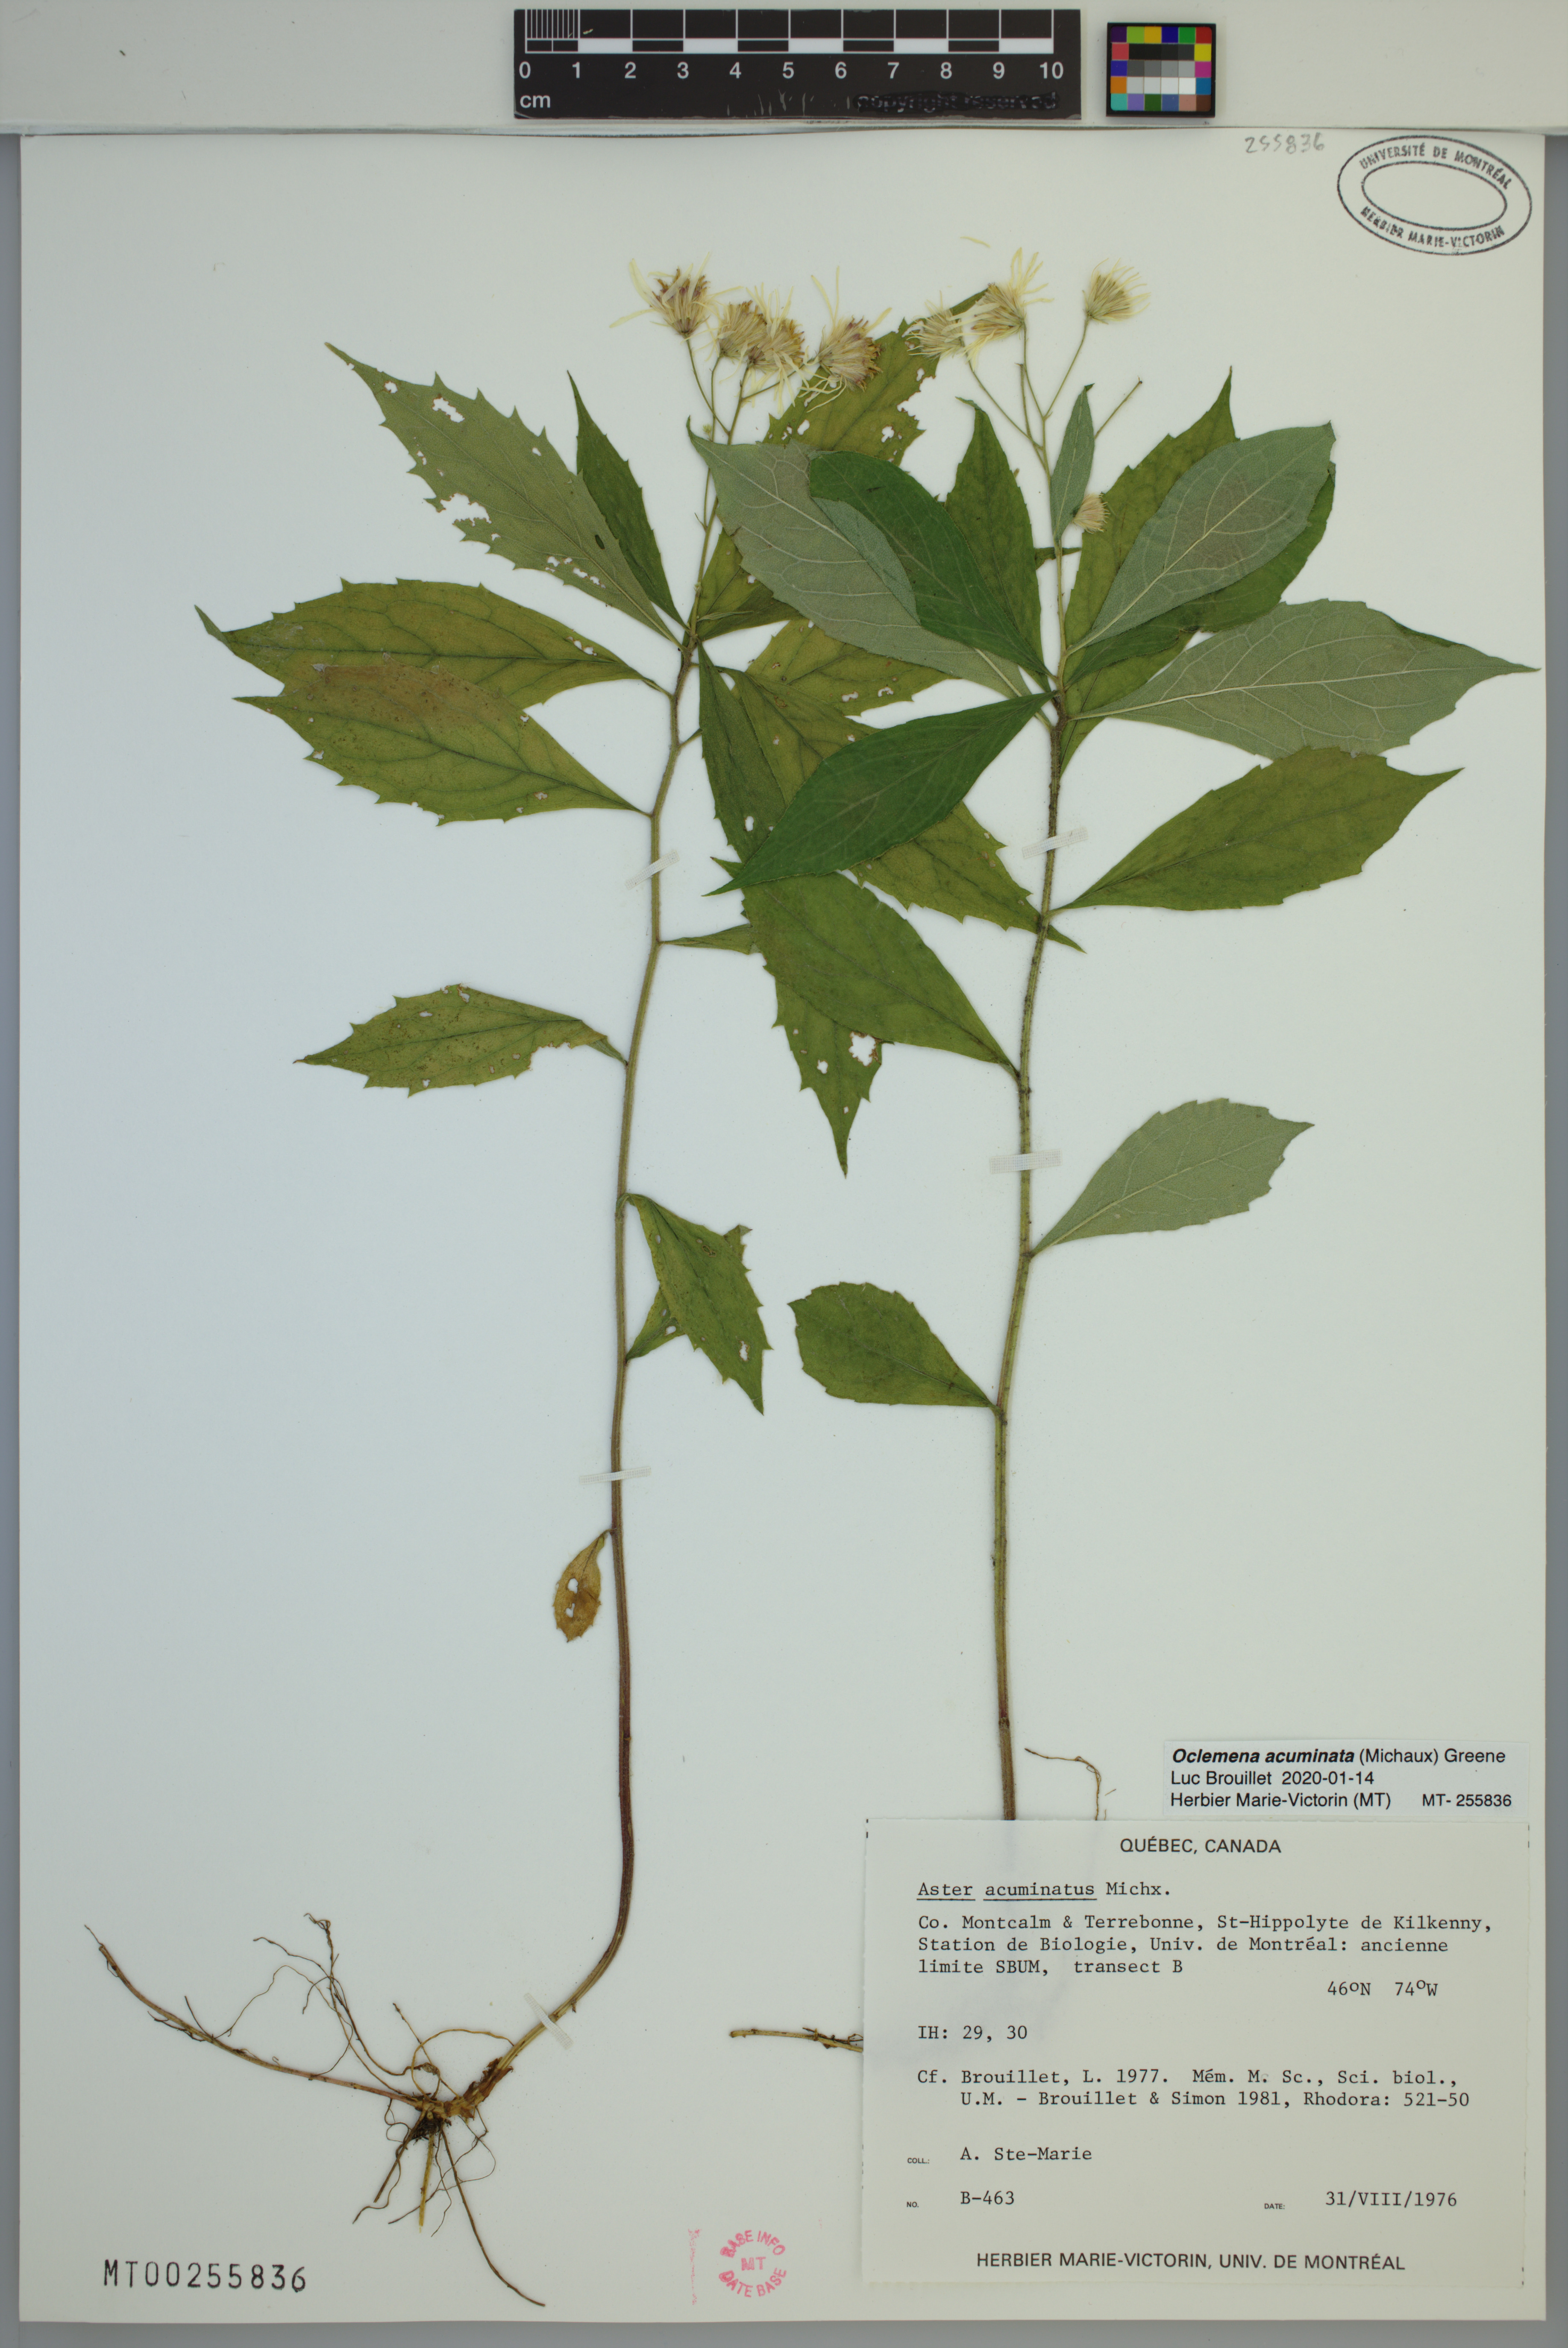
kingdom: Plantae
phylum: Tracheophyta
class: Magnoliopsida
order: Asterales
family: Asteraceae
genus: Oclemena
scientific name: Oclemena acuminata
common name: Mountain aster
